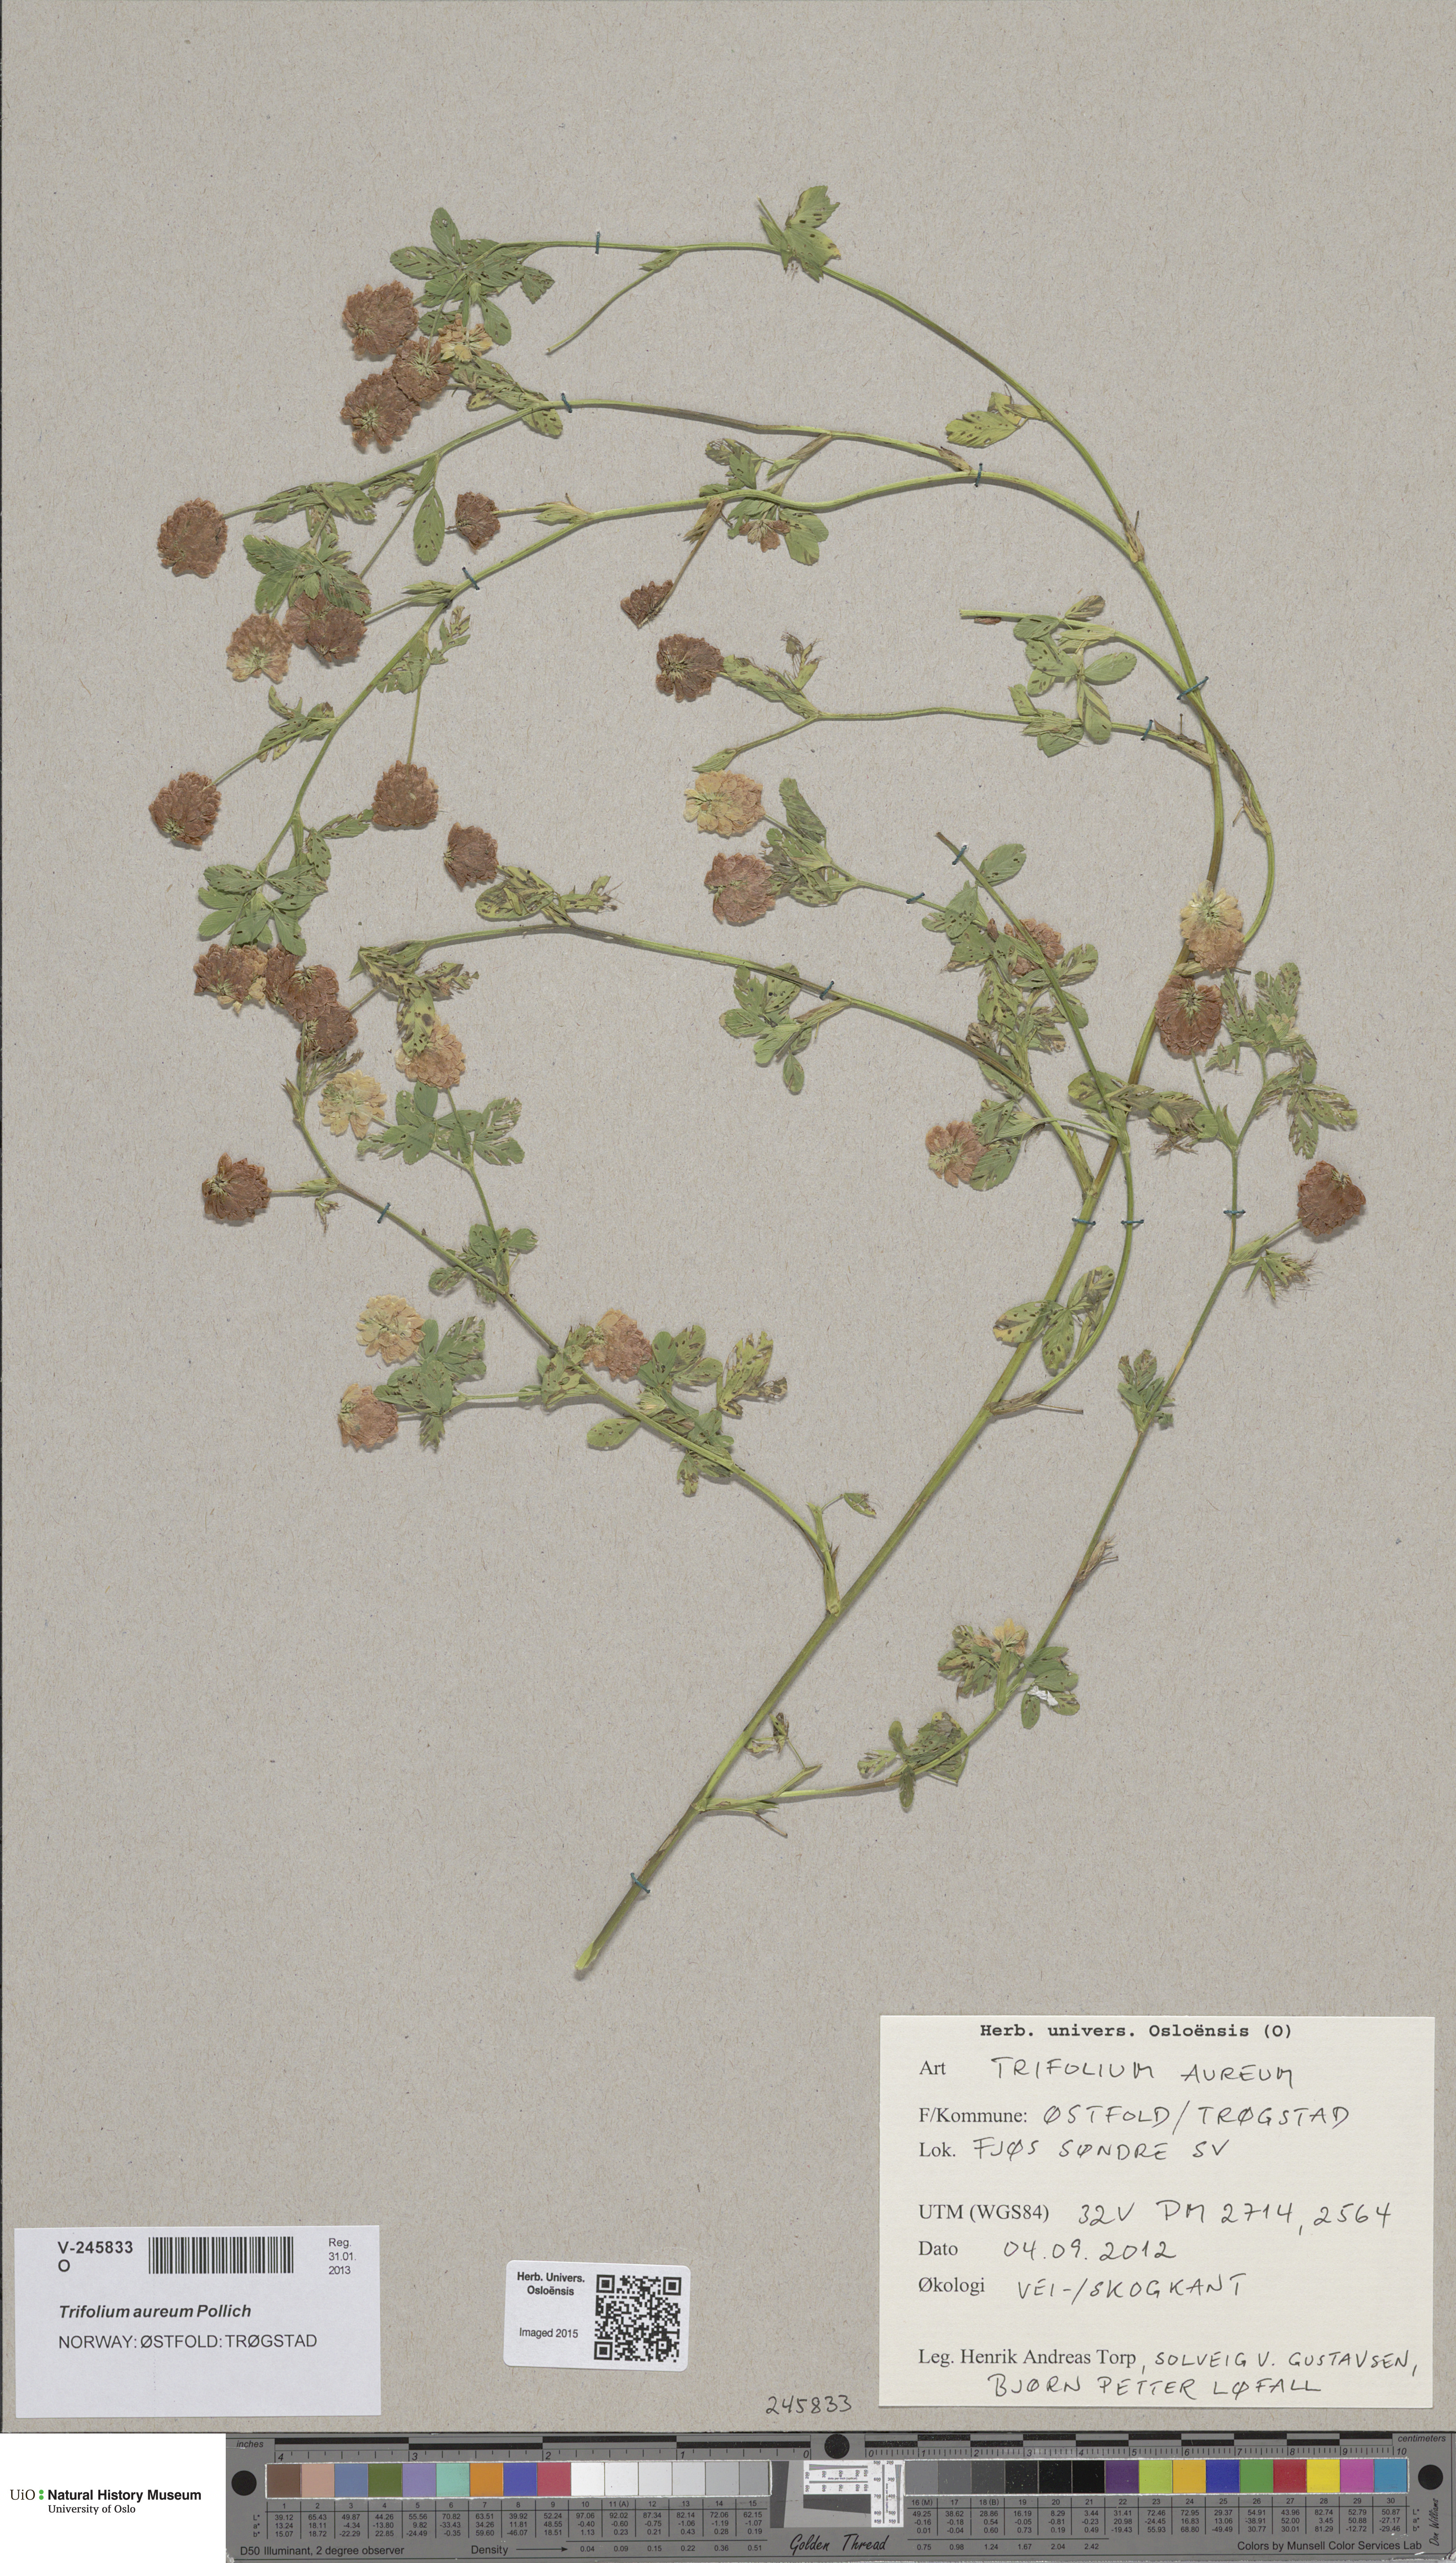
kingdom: Plantae
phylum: Tracheophyta
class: Magnoliopsida
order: Fabales
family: Fabaceae
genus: Trifolium
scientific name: Trifolium aureum
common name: Golden clover
